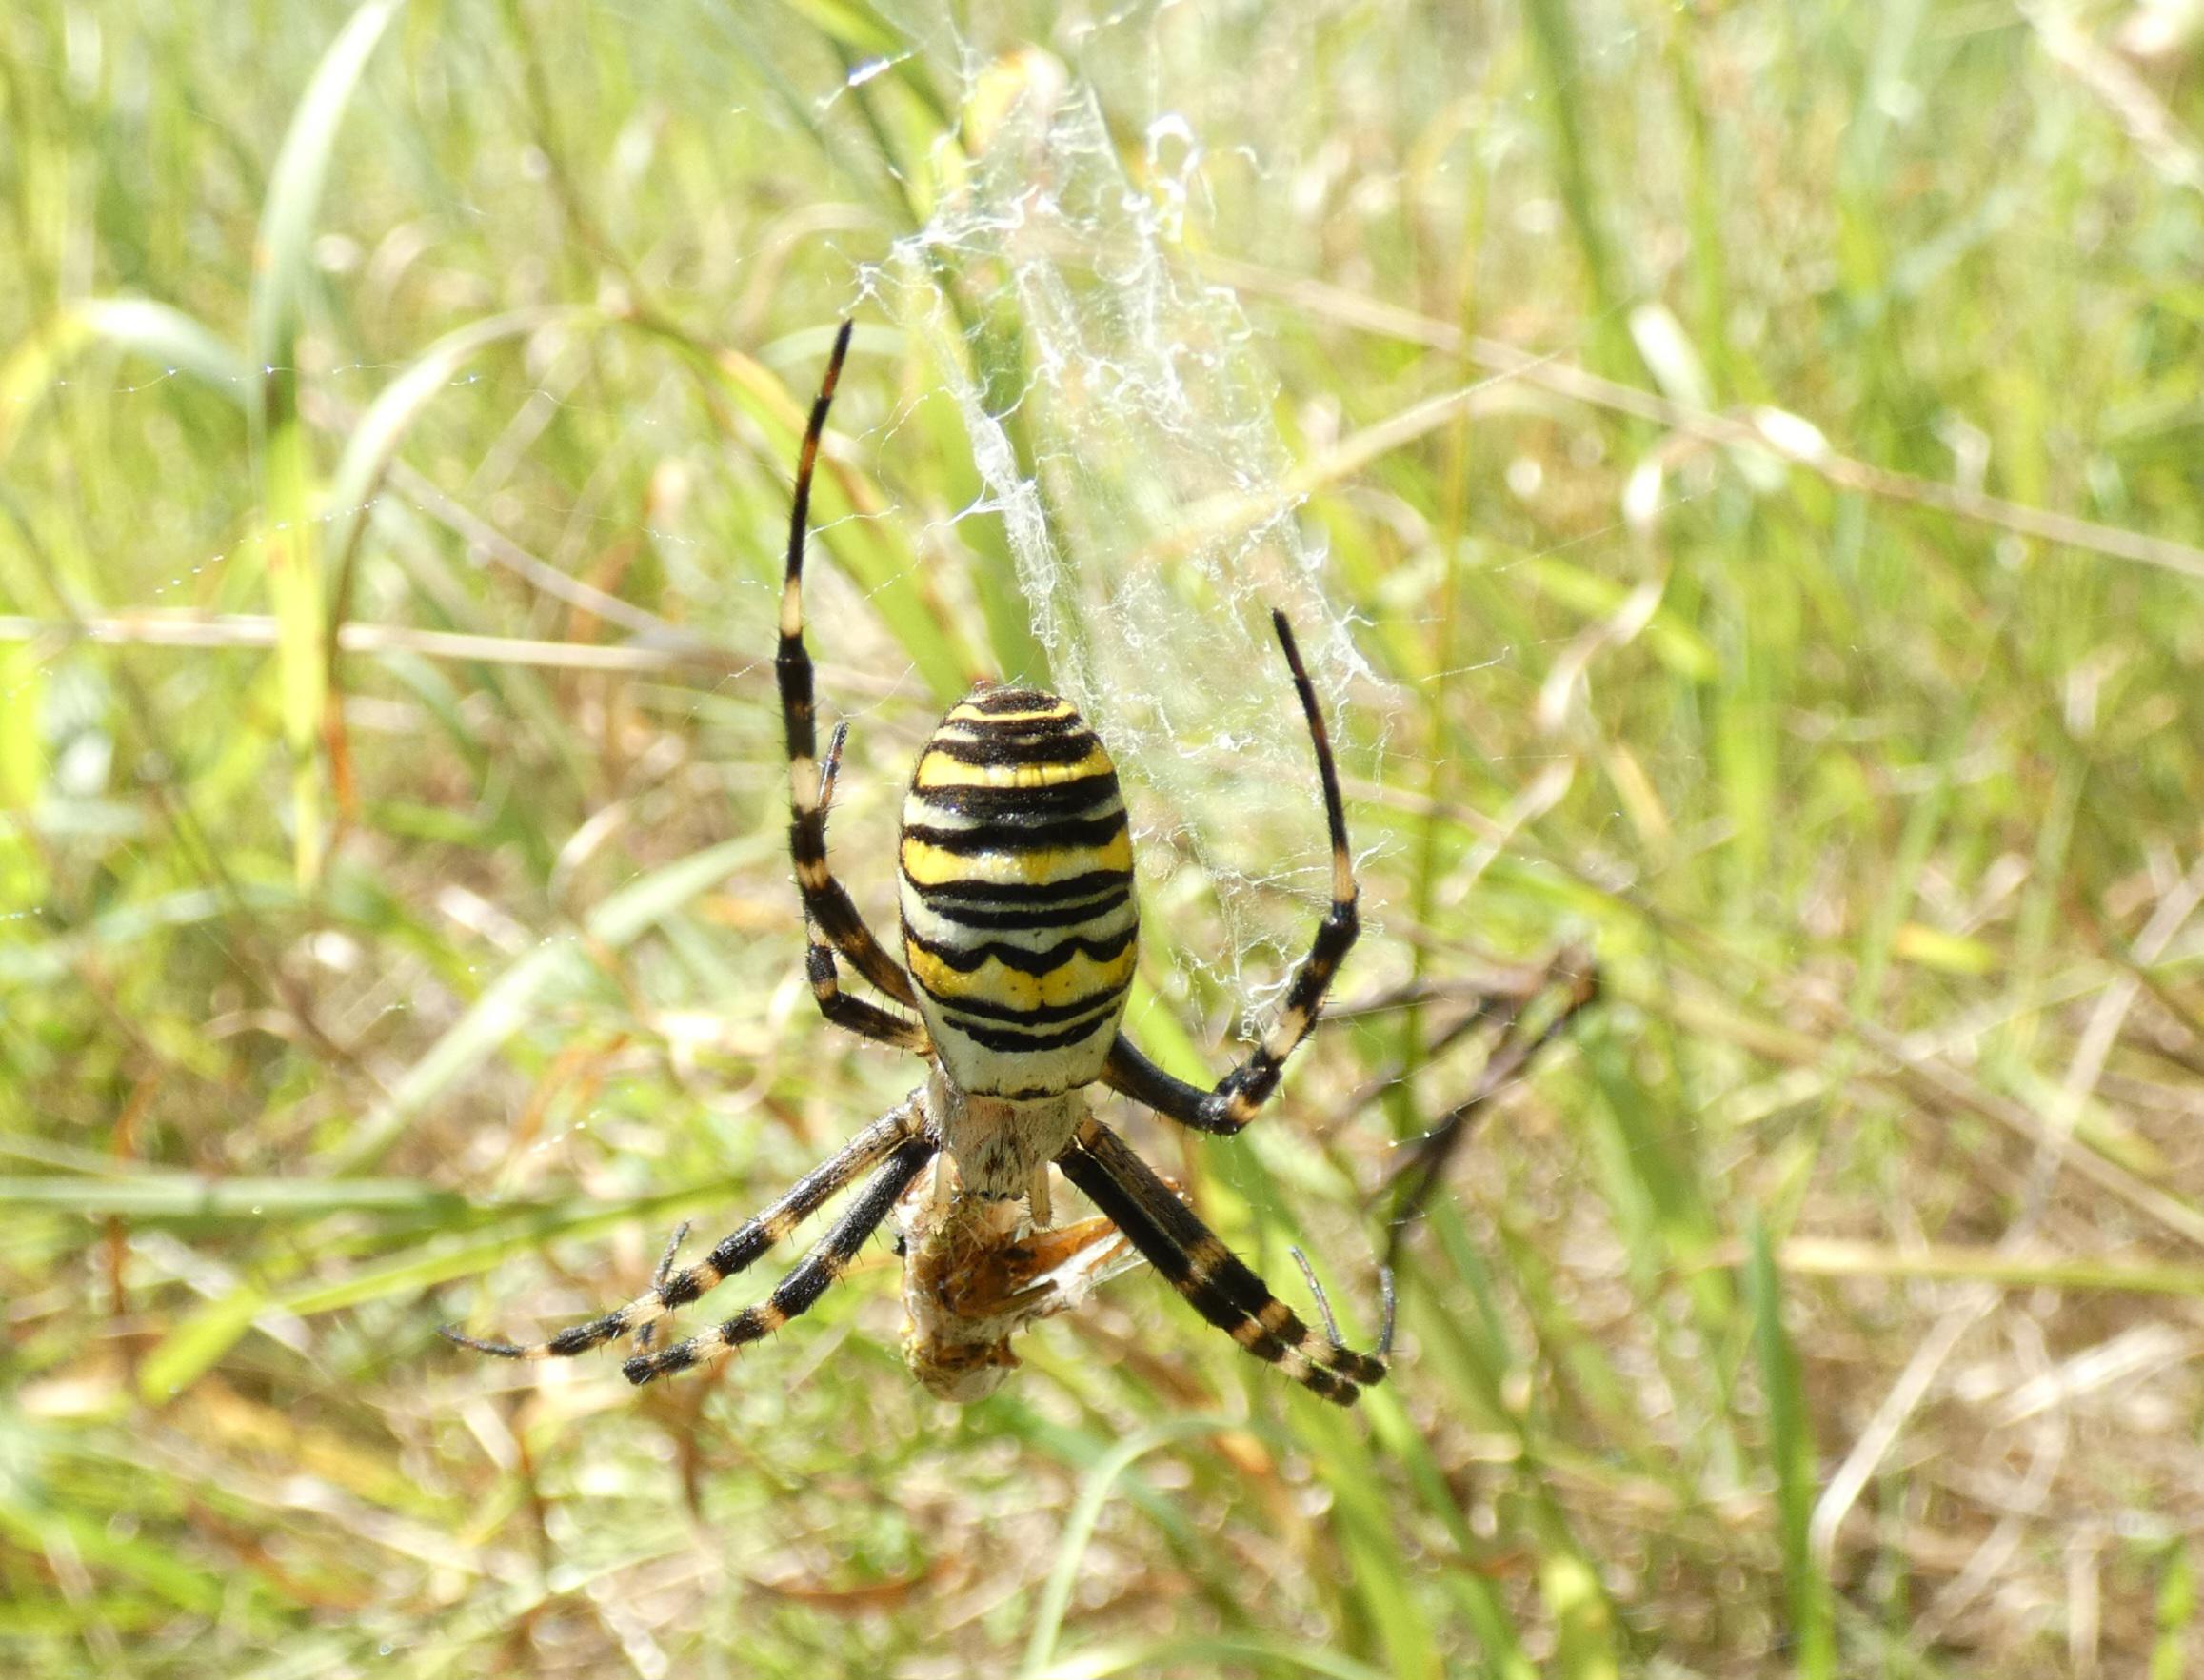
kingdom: Animalia
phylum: Arthropoda
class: Arachnida
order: Araneae
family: Araneidae
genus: Argiope
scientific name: Argiope bruennichi
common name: Hvepseedderkop
